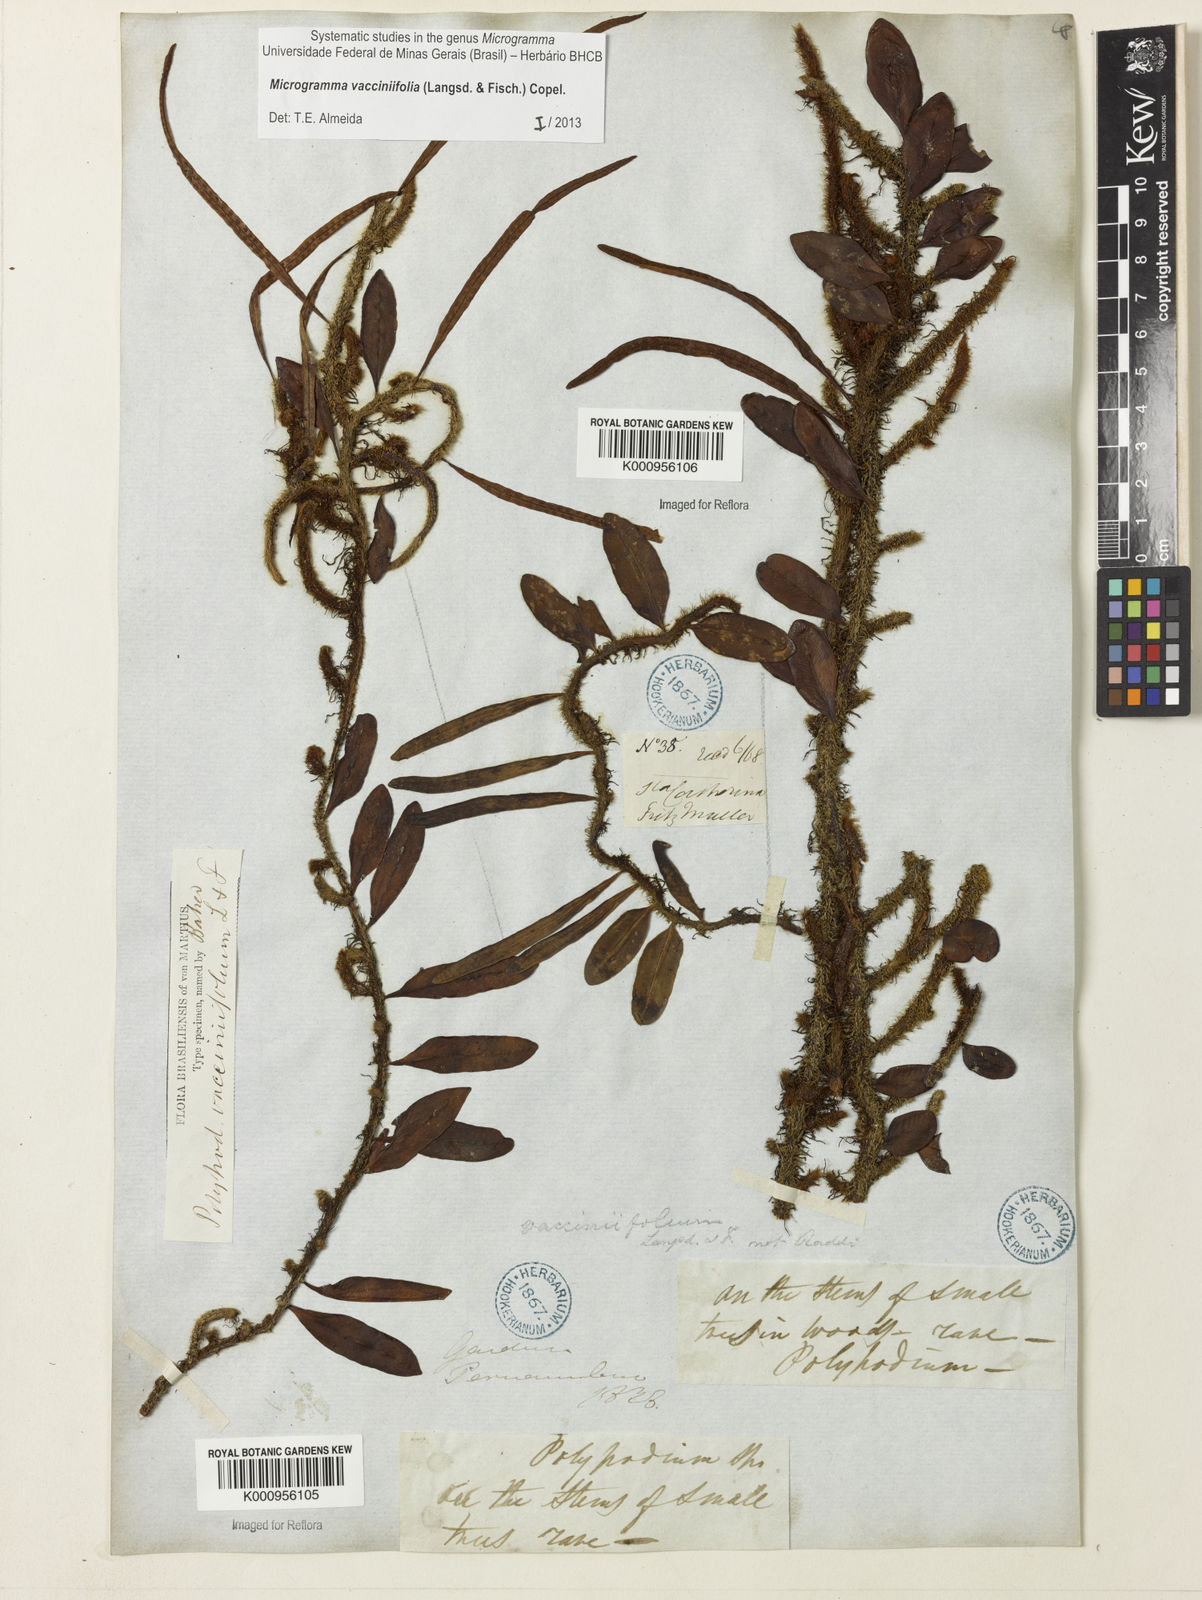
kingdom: Plantae
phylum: Tracheophyta
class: Polypodiopsida
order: Polypodiales
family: Polypodiaceae
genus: Phlebodium
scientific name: Phlebodium
